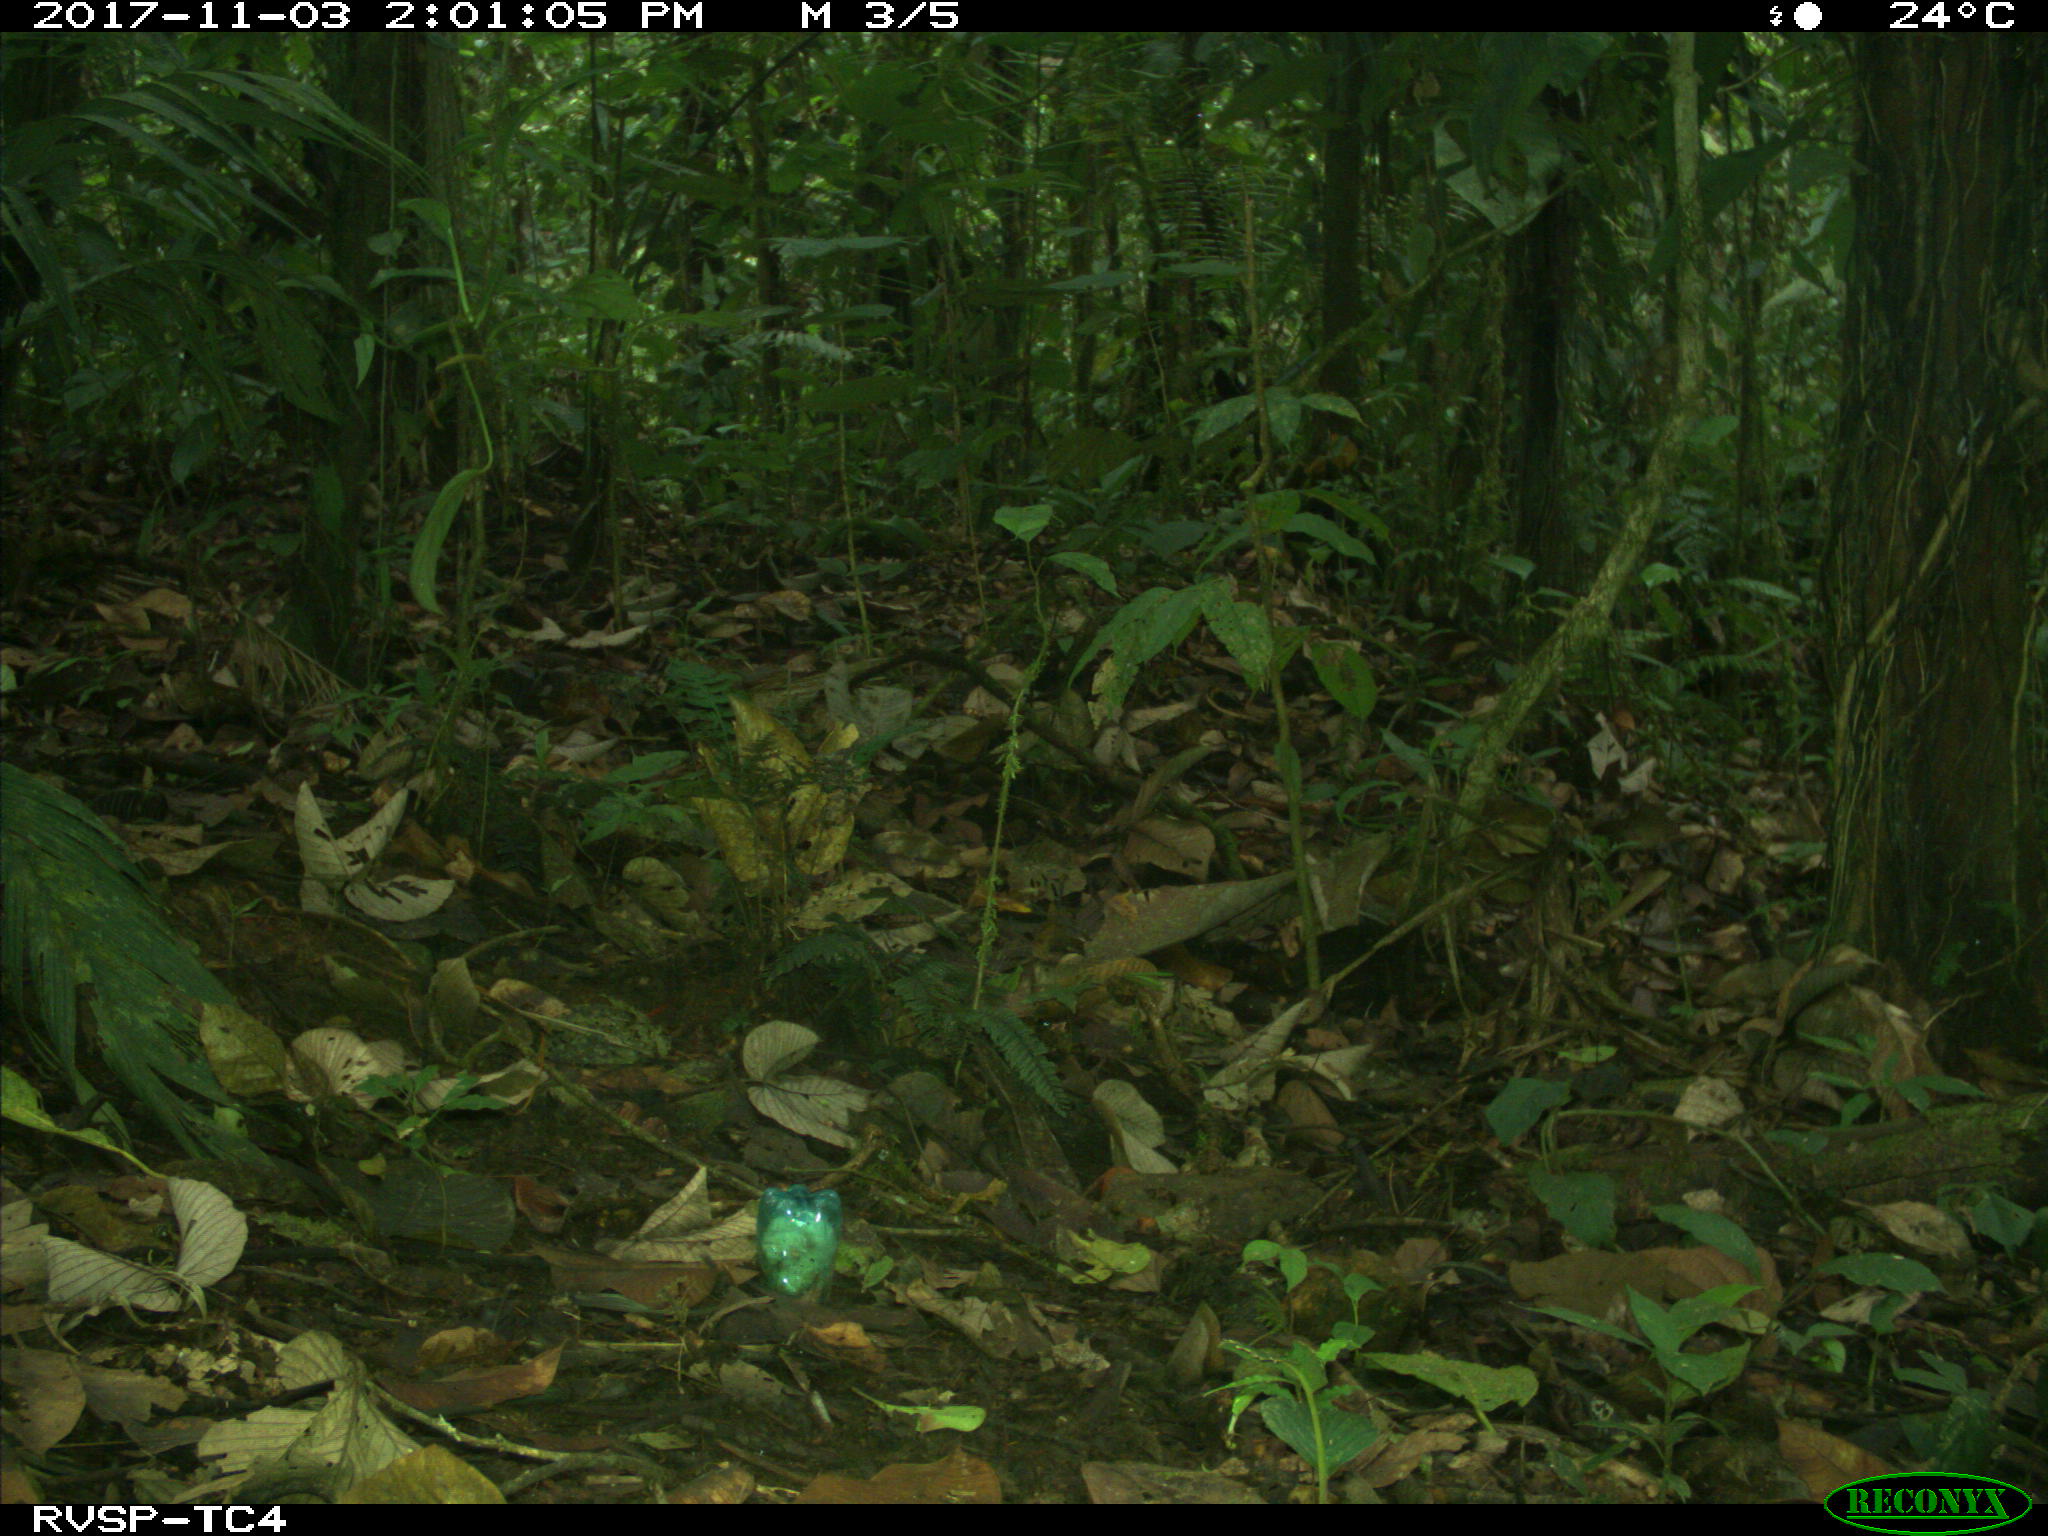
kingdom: Animalia
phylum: Chordata
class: Mammalia
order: Rodentia
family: Dasyproctidae
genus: Dasyprocta
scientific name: Dasyprocta punctata
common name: Central american agouti
